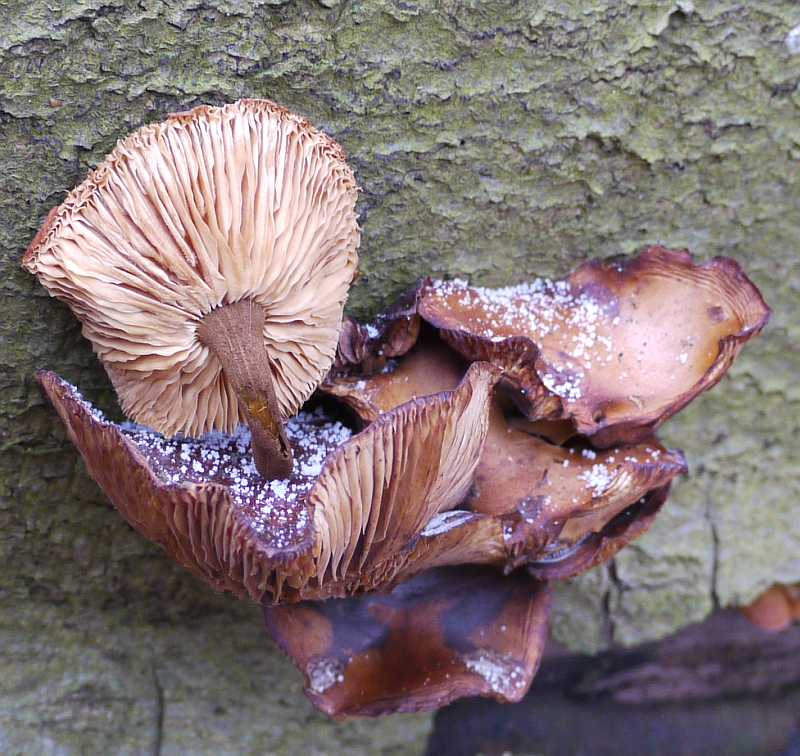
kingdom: Fungi
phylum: Basidiomycota
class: Agaricomycetes
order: Agaricales
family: Physalacriaceae
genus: Flammulina
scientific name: Flammulina velutipes
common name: gul fløjlsfod
